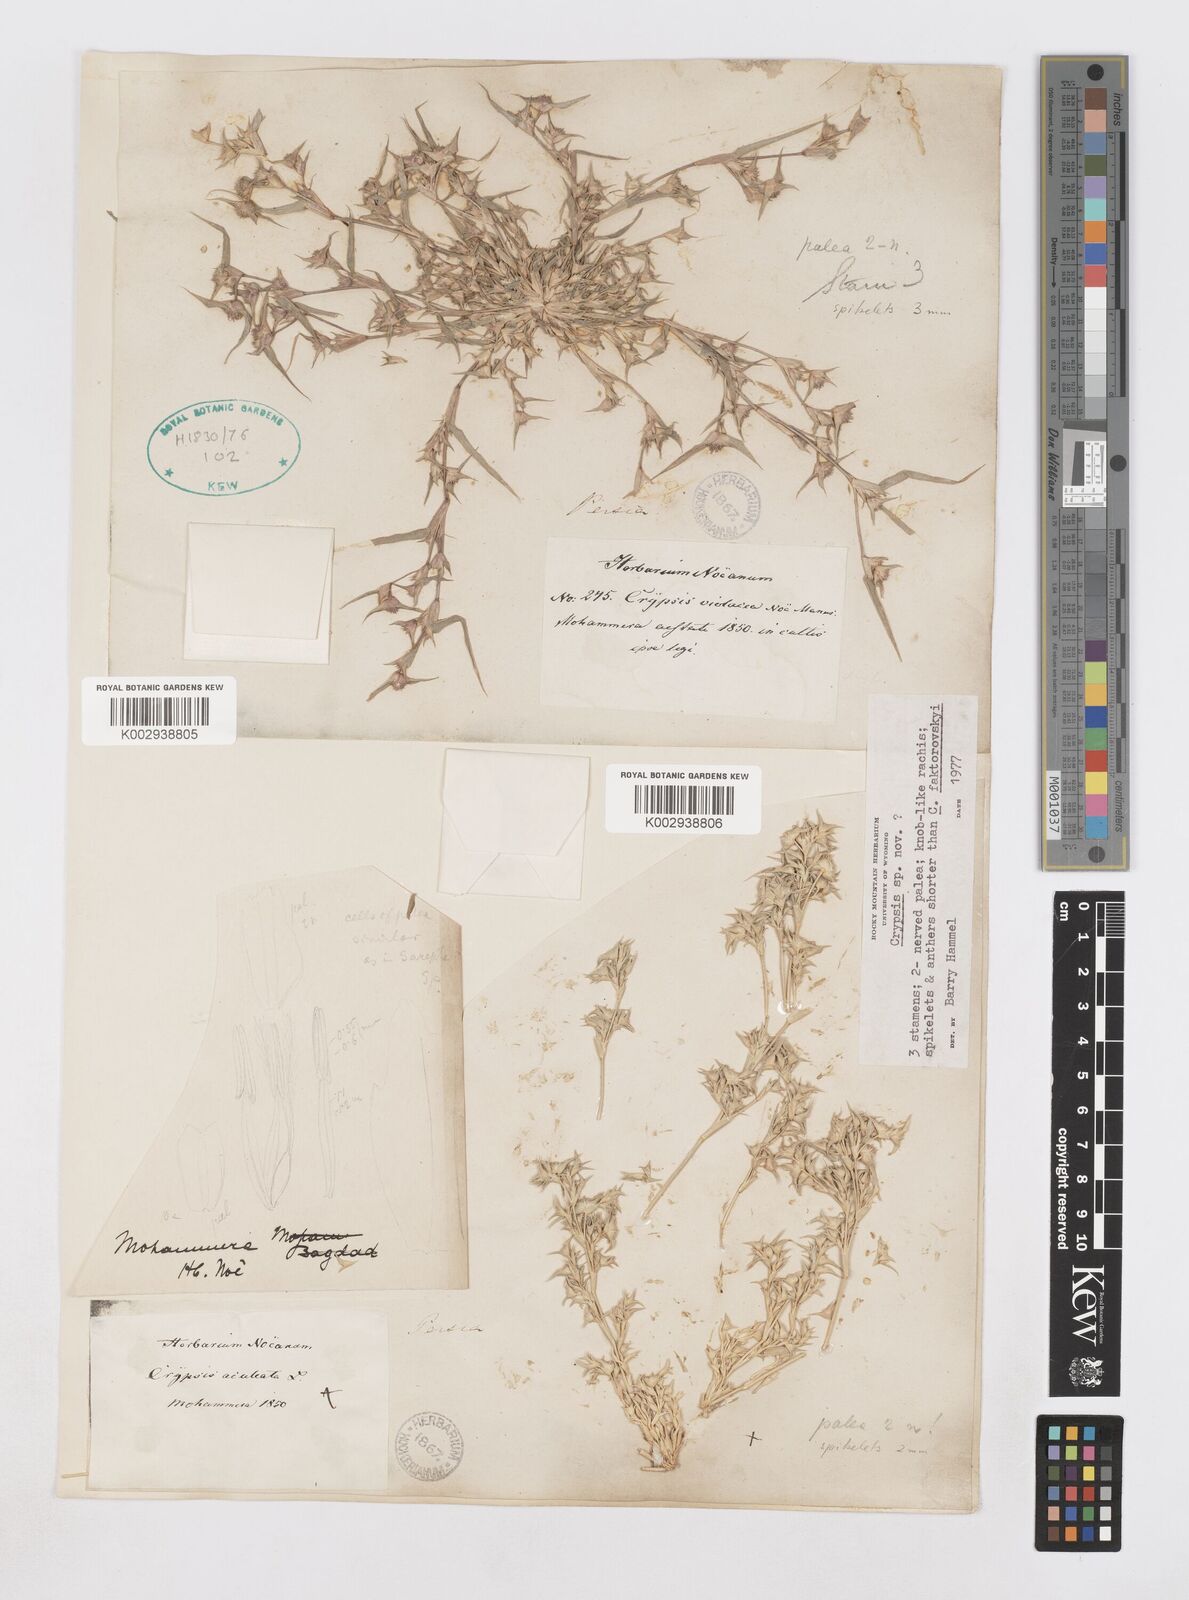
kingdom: Animalia
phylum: Arthropoda
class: Insecta
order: Coleoptera
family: Tenebrionidae
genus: Crypsis
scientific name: Crypsis
